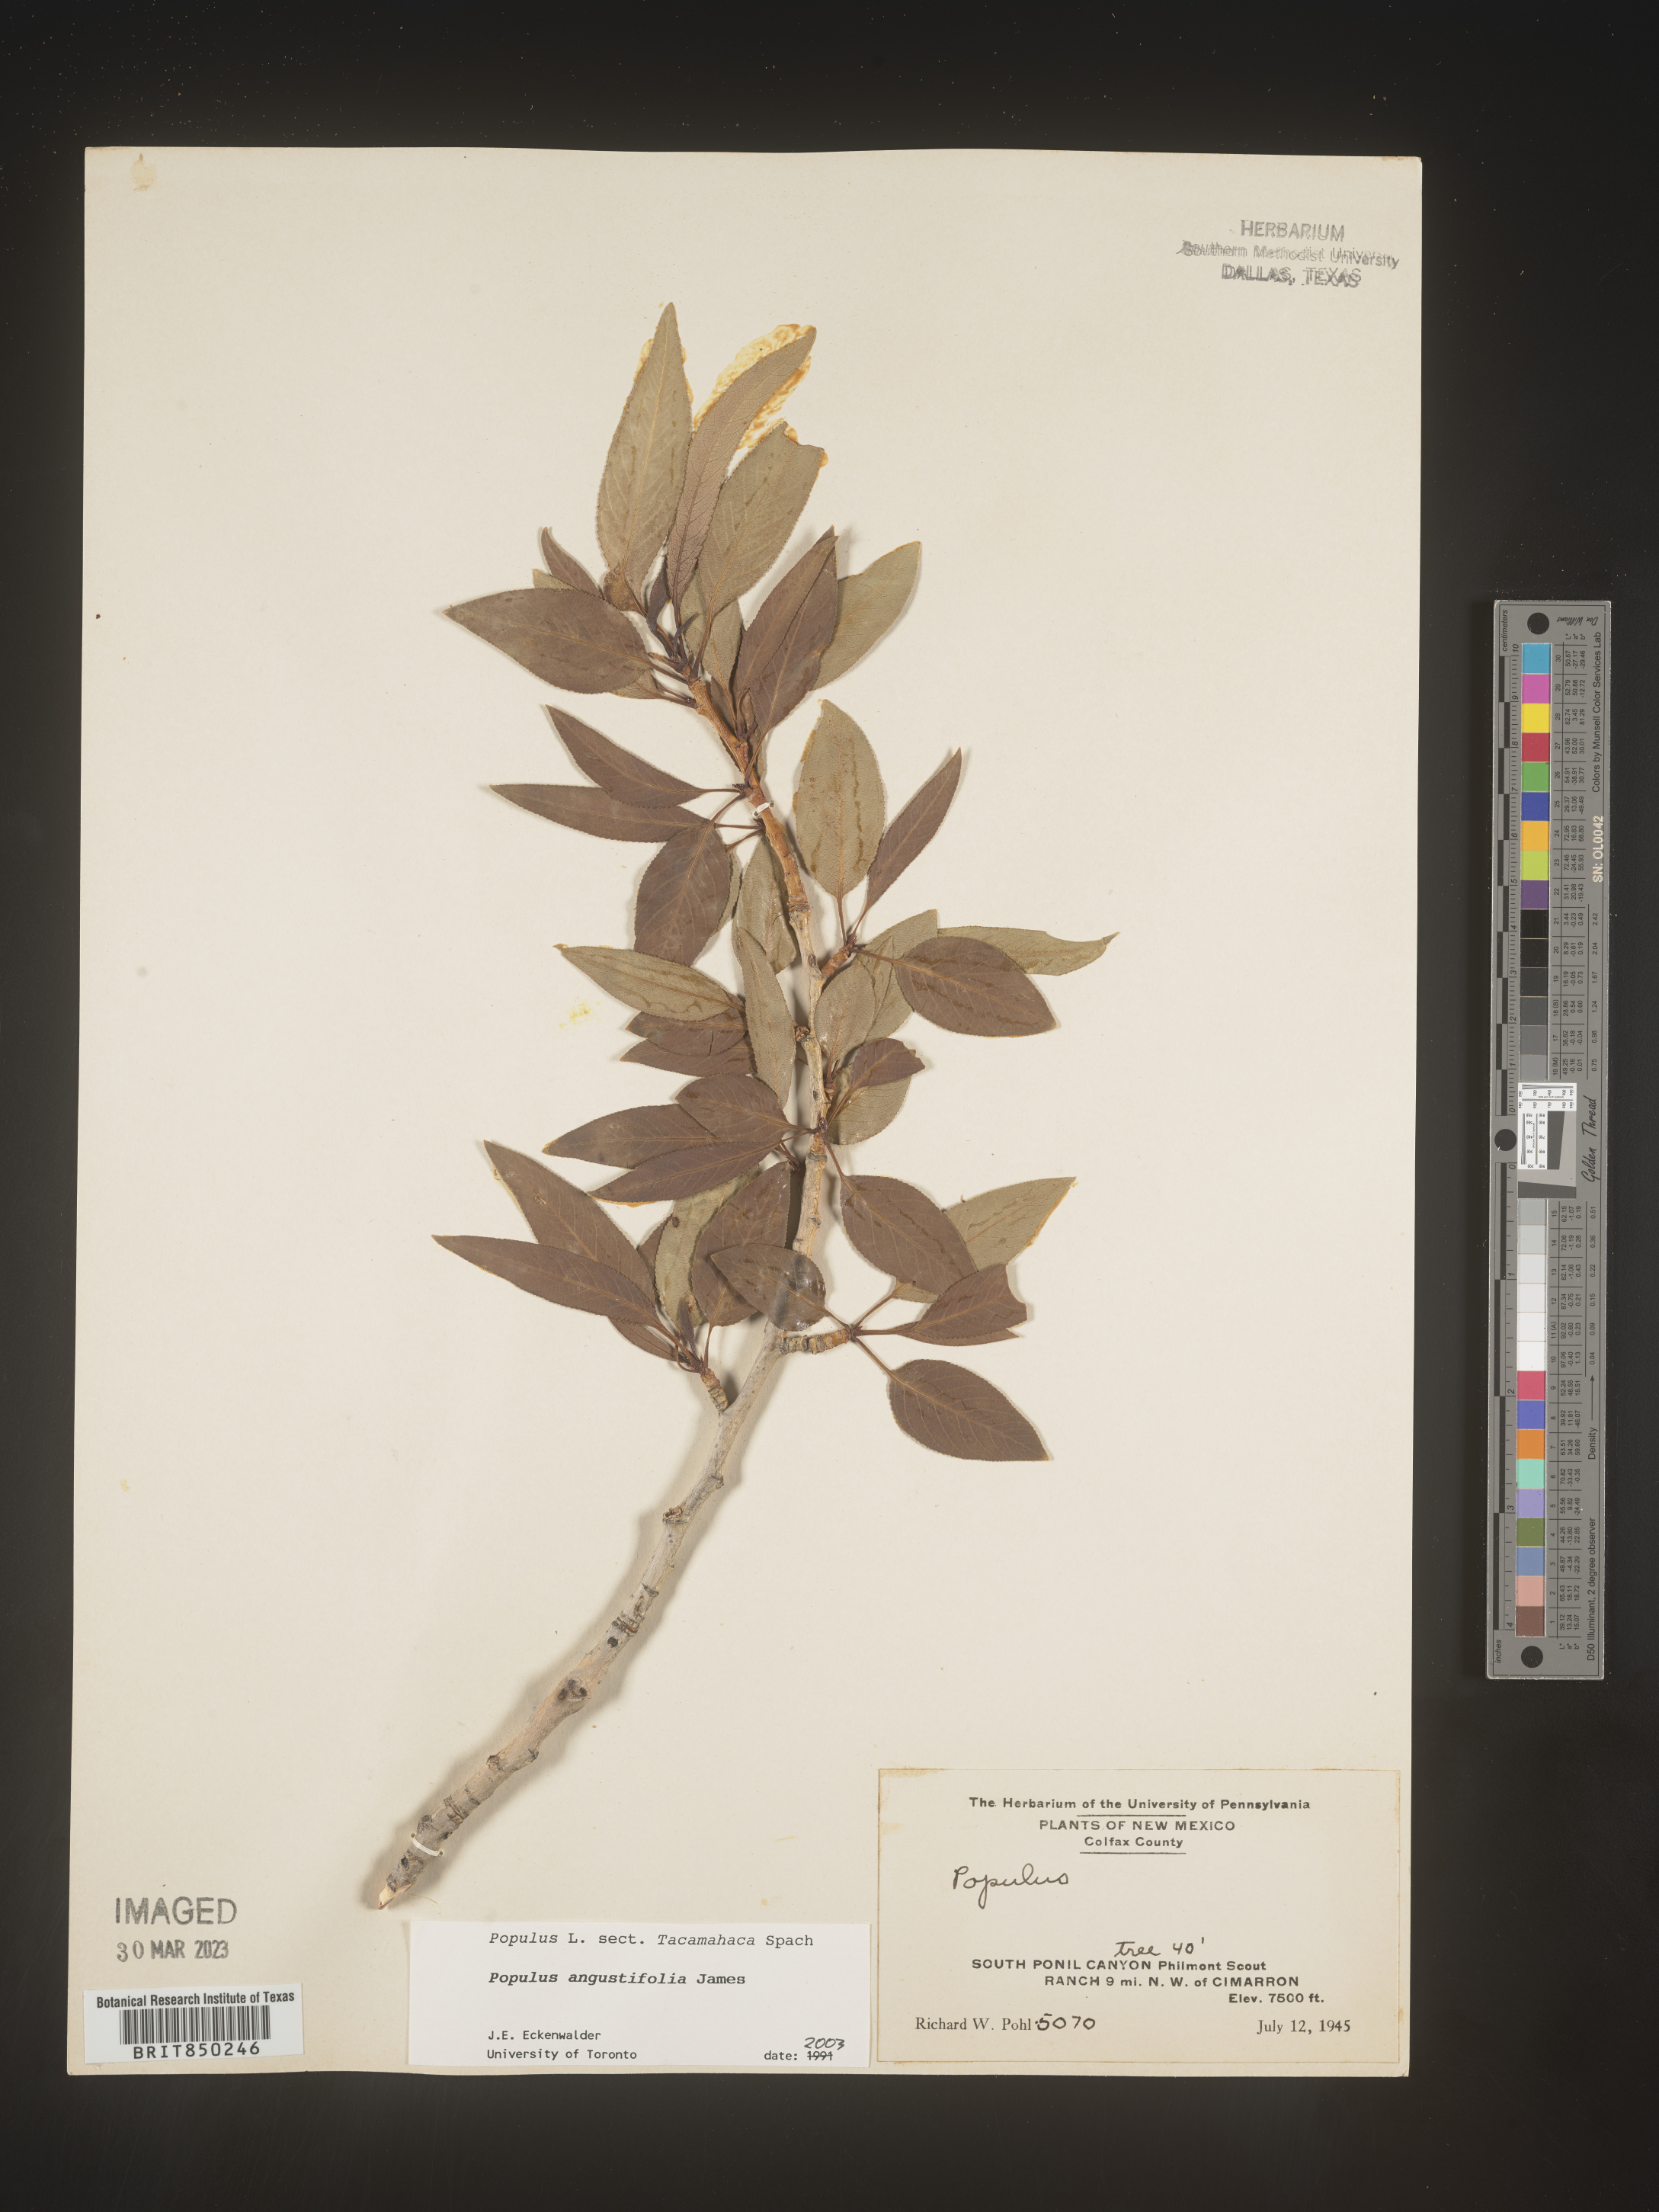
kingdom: Plantae
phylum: Tracheophyta
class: Magnoliopsida
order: Malpighiales
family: Salicaceae
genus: Populus
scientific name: Populus angustifolia
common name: Willow cottonwood
